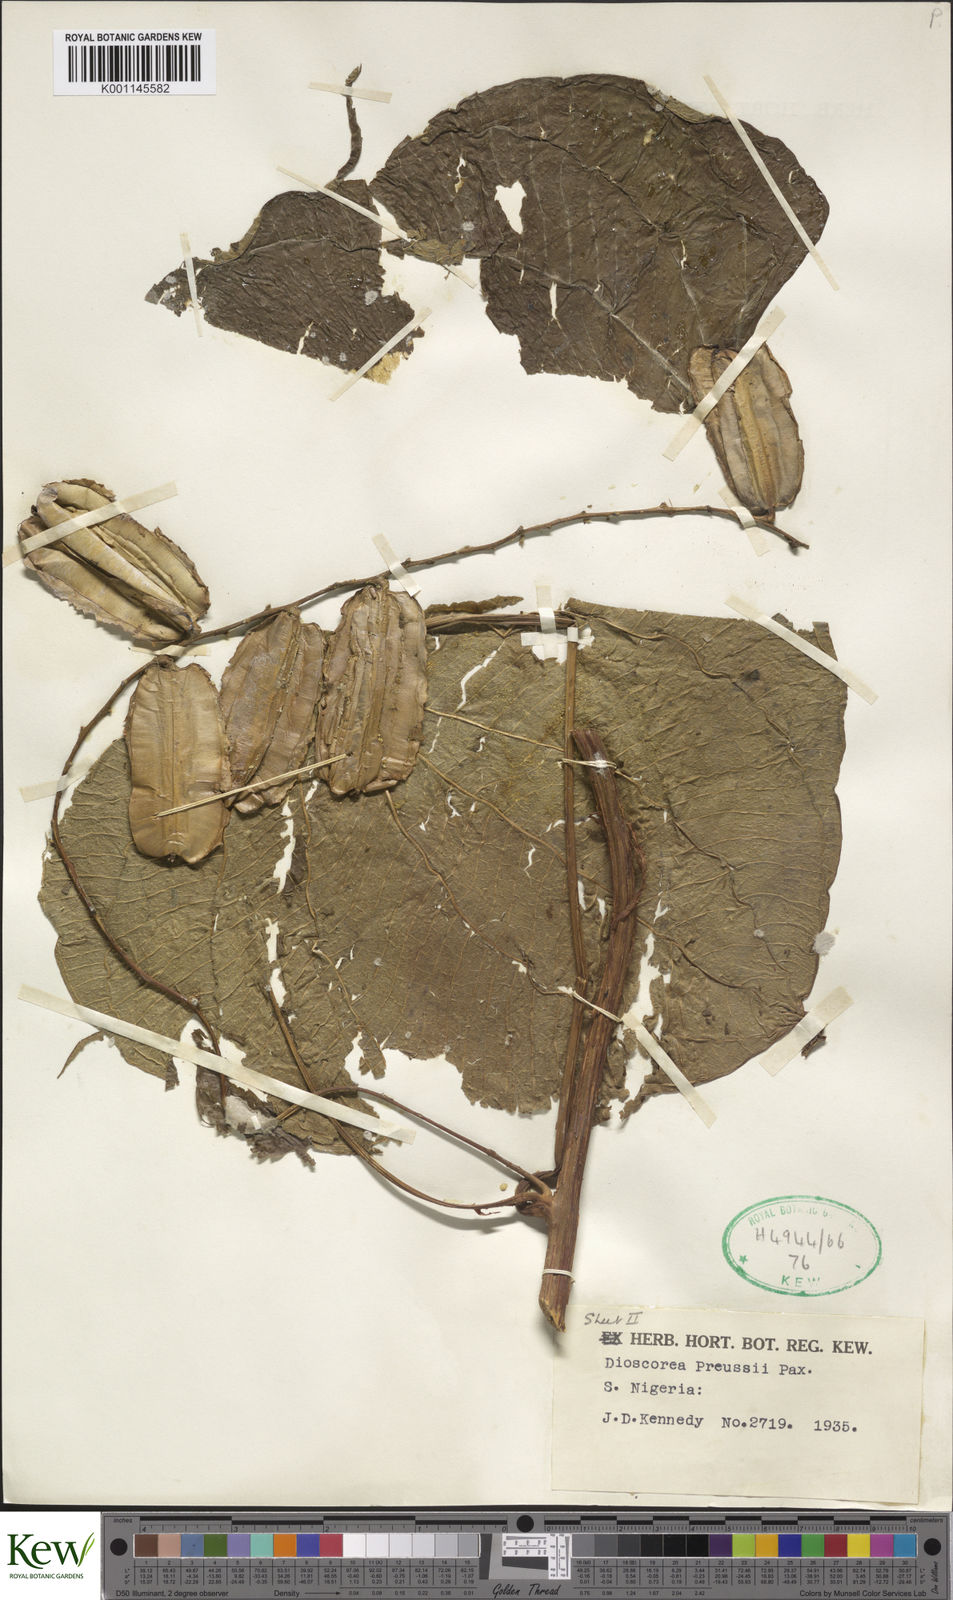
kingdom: Plantae
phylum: Tracheophyta
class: Liliopsida
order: Dioscoreales
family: Dioscoreaceae
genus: Dioscorea
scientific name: Dioscorea preussii
